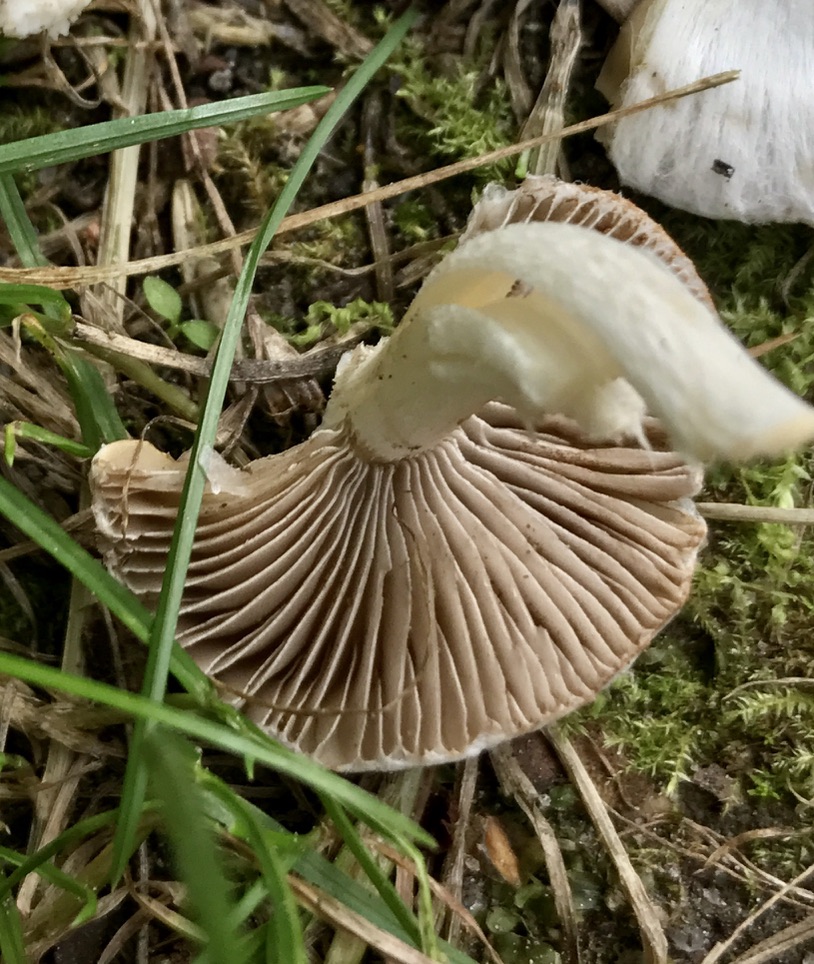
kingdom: Fungi
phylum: Basidiomycota
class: Agaricomycetes
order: Agaricales
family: Inocybaceae
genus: Inocybe
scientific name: Inocybe
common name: almindelig trævlhat
